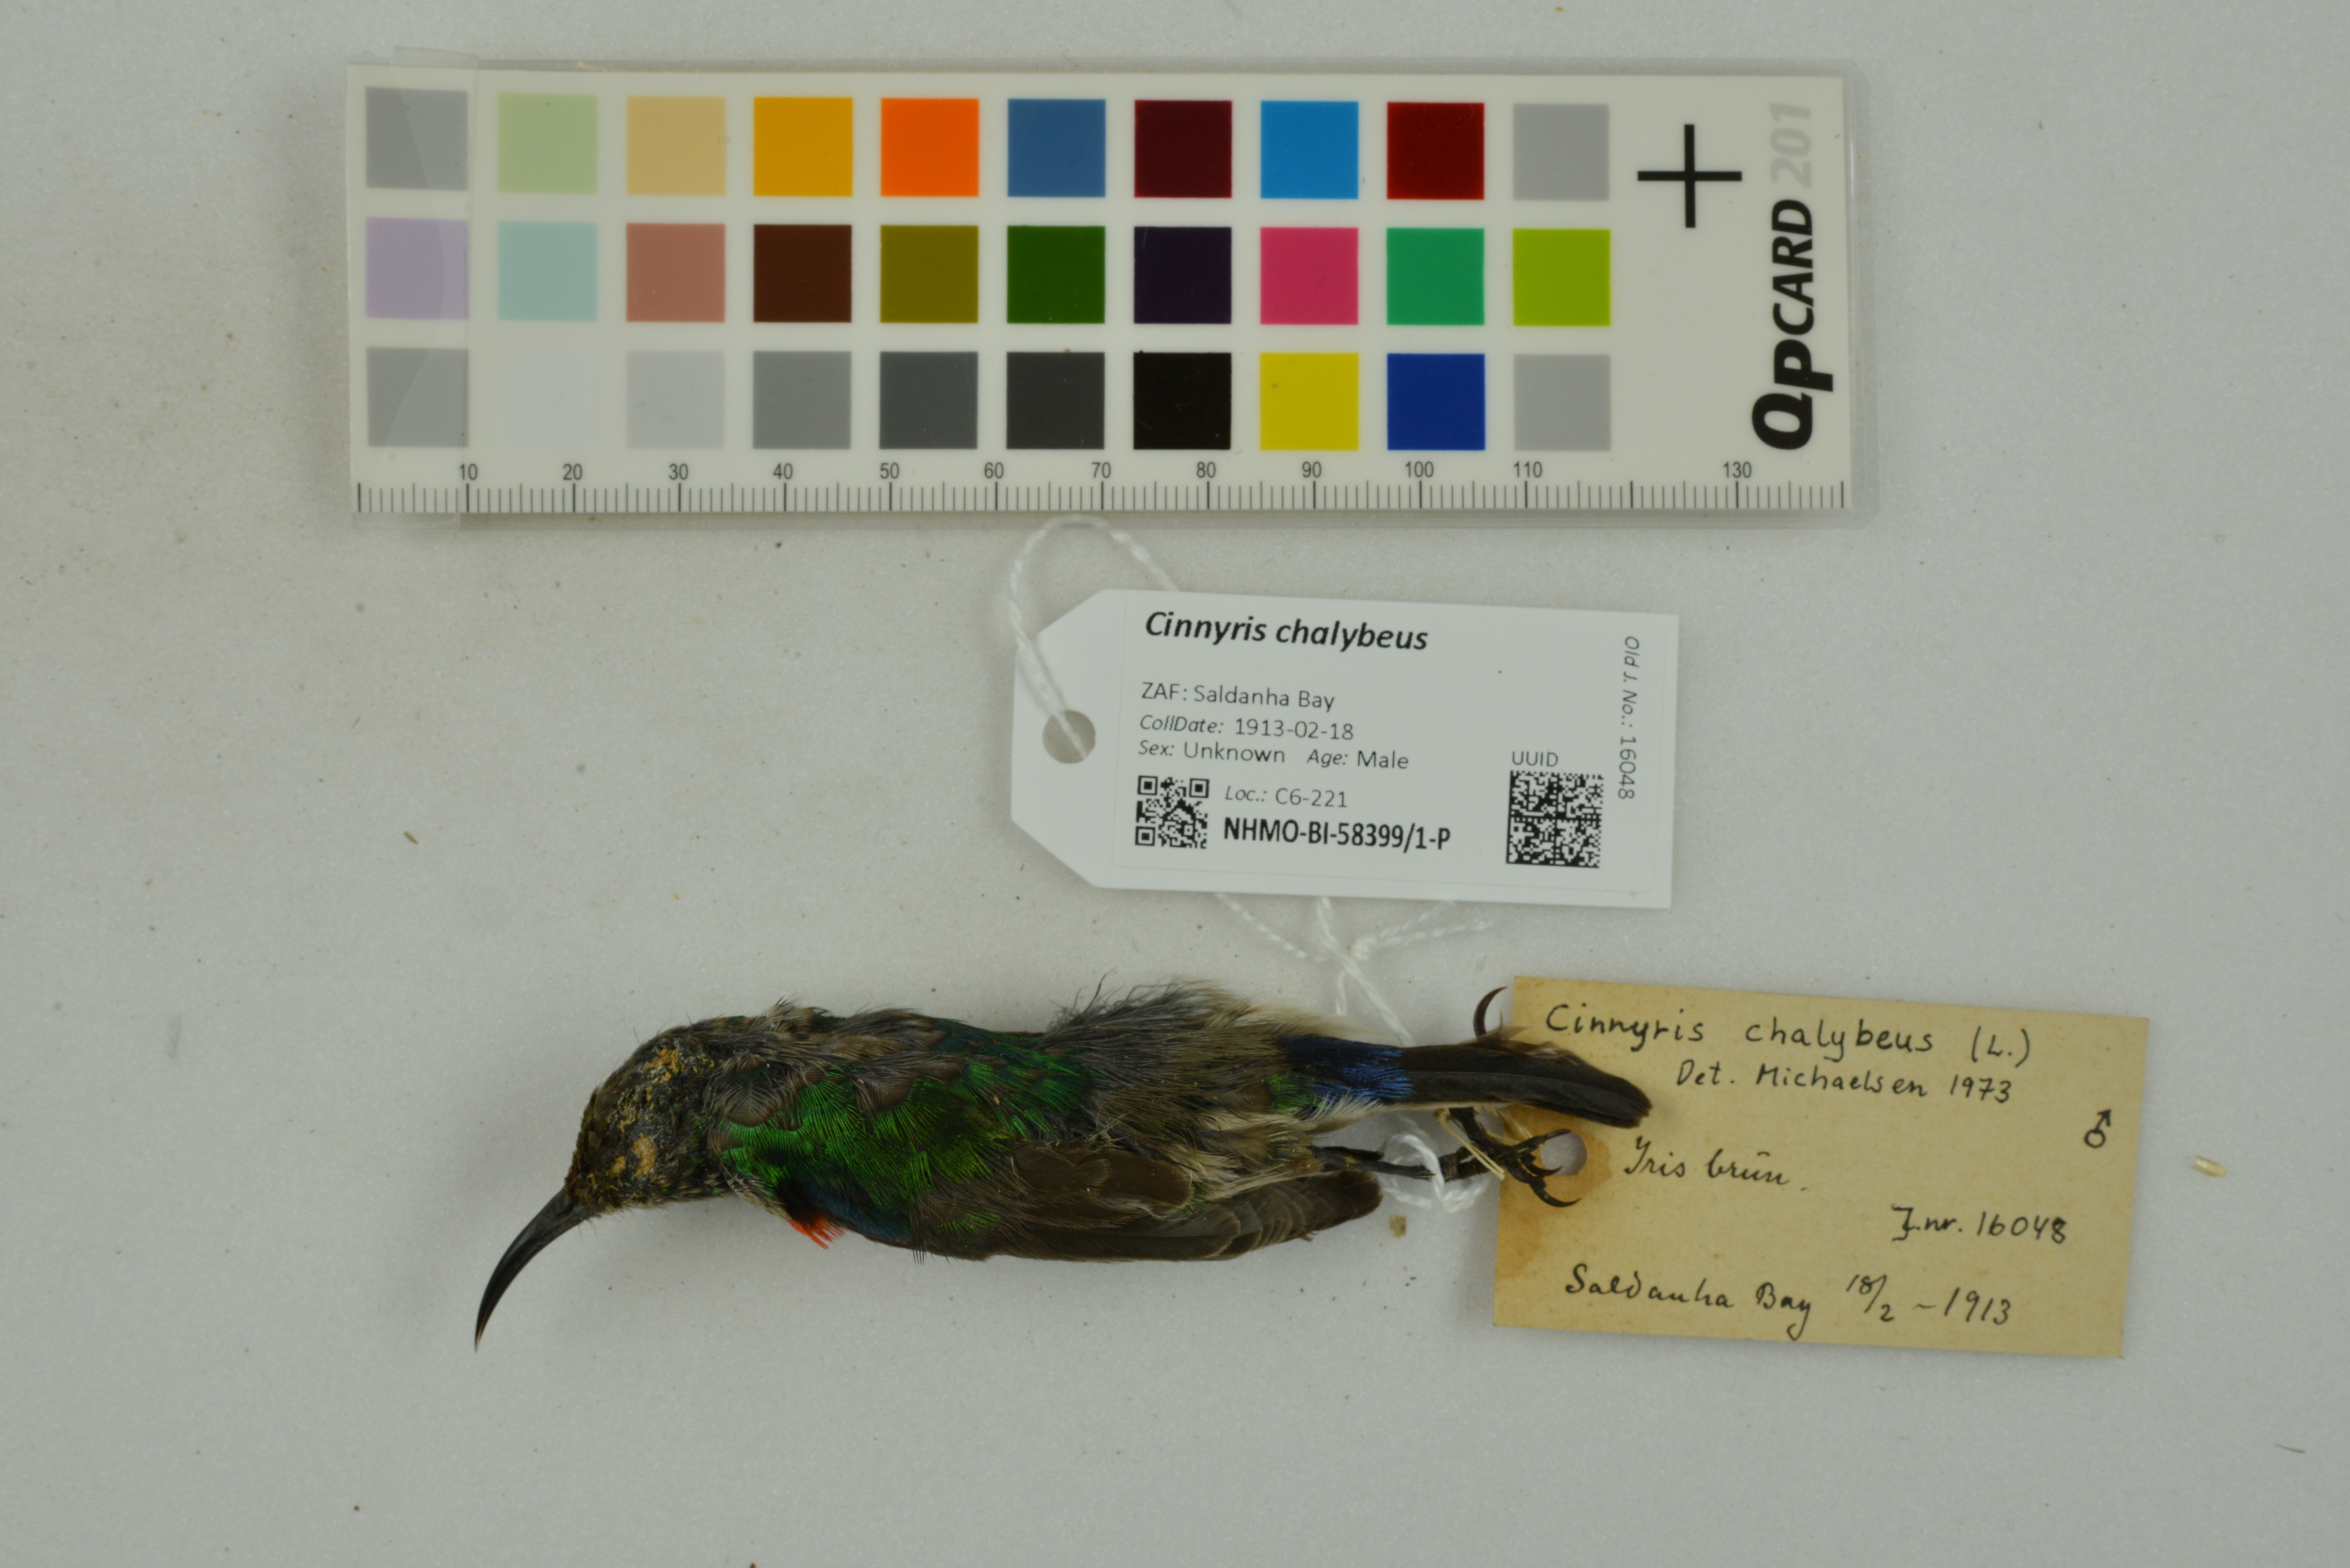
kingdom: Animalia
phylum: Chordata
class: Aves
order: Passeriformes
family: Nectariniidae
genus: Cinnyris
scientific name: Cinnyris chalybeus
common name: Southern double-collared sunbird
